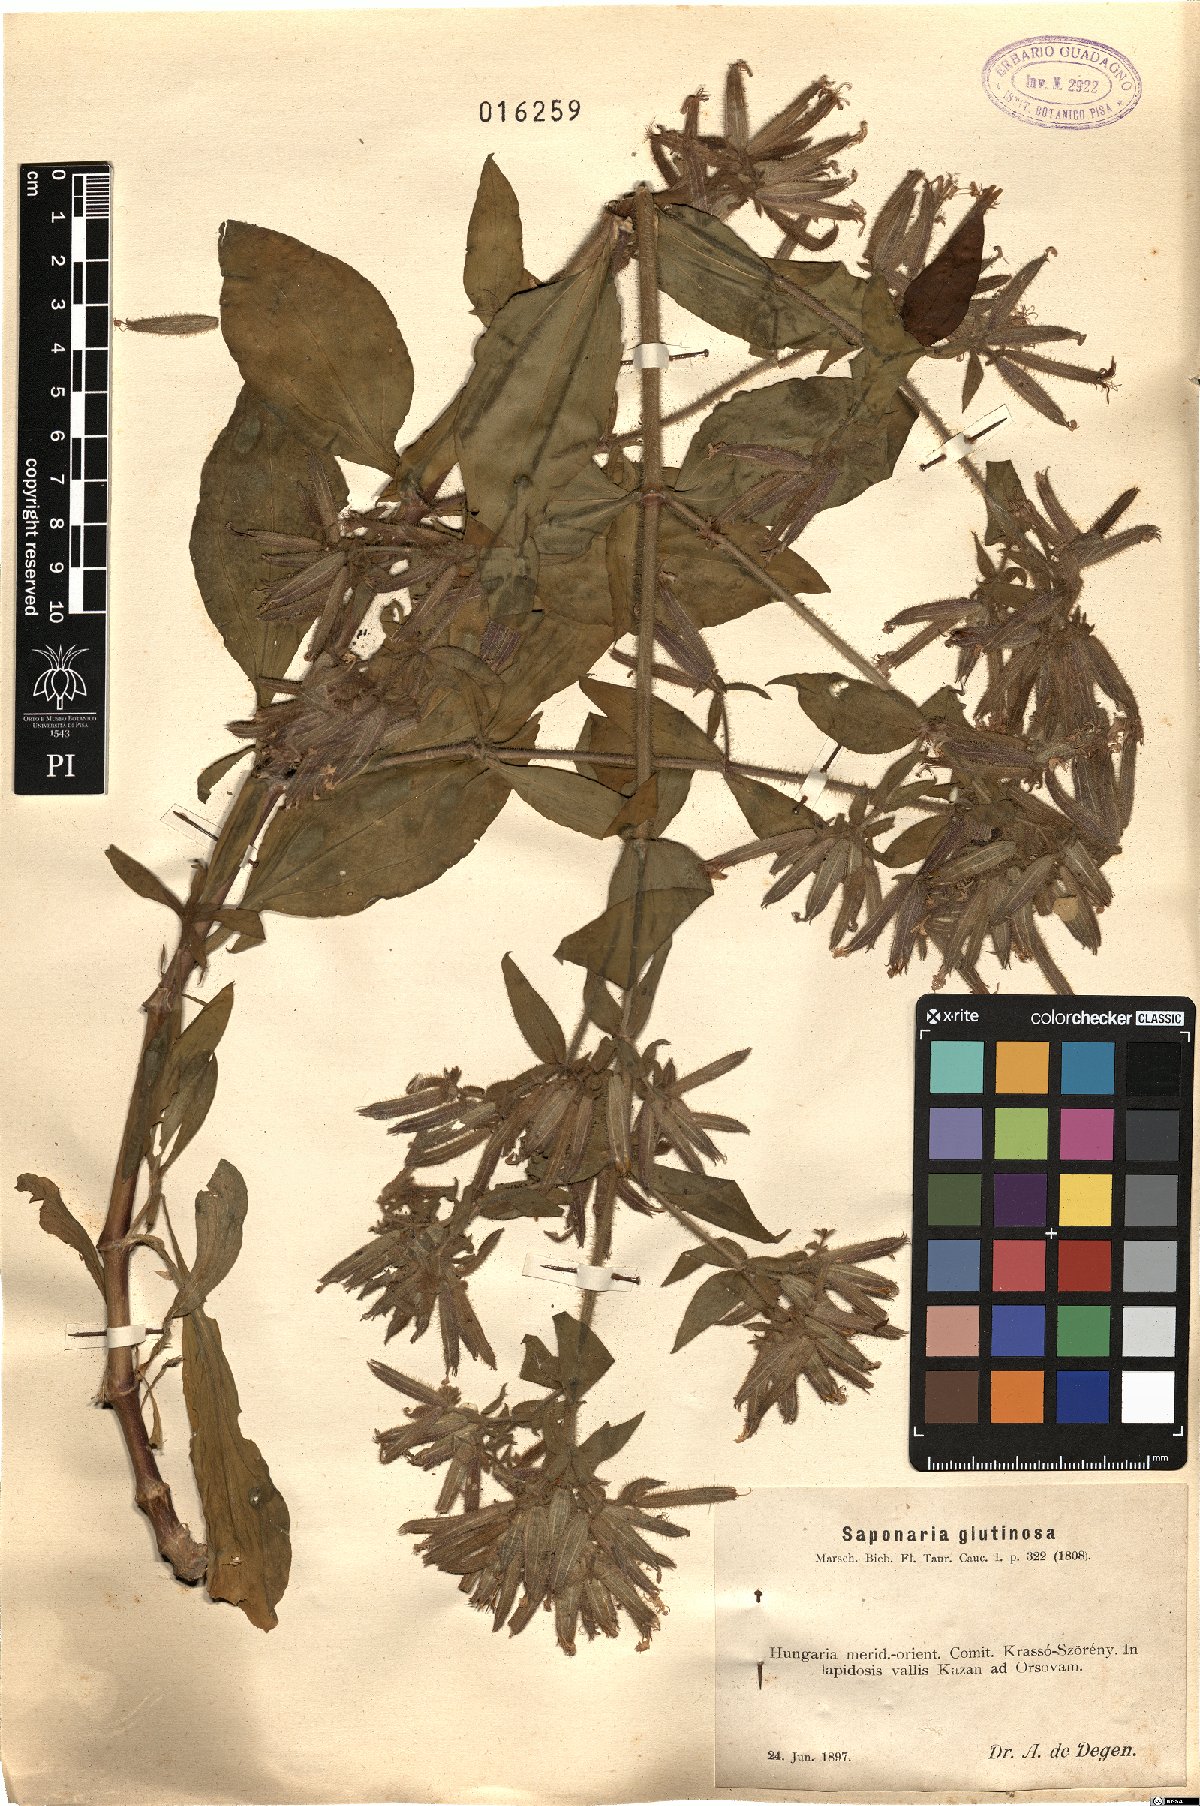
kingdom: Plantae
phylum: Tracheophyta
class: Magnoliopsida
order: Caryophyllales
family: Caryophyllaceae
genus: Saponaria
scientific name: Saponaria glutinosa
